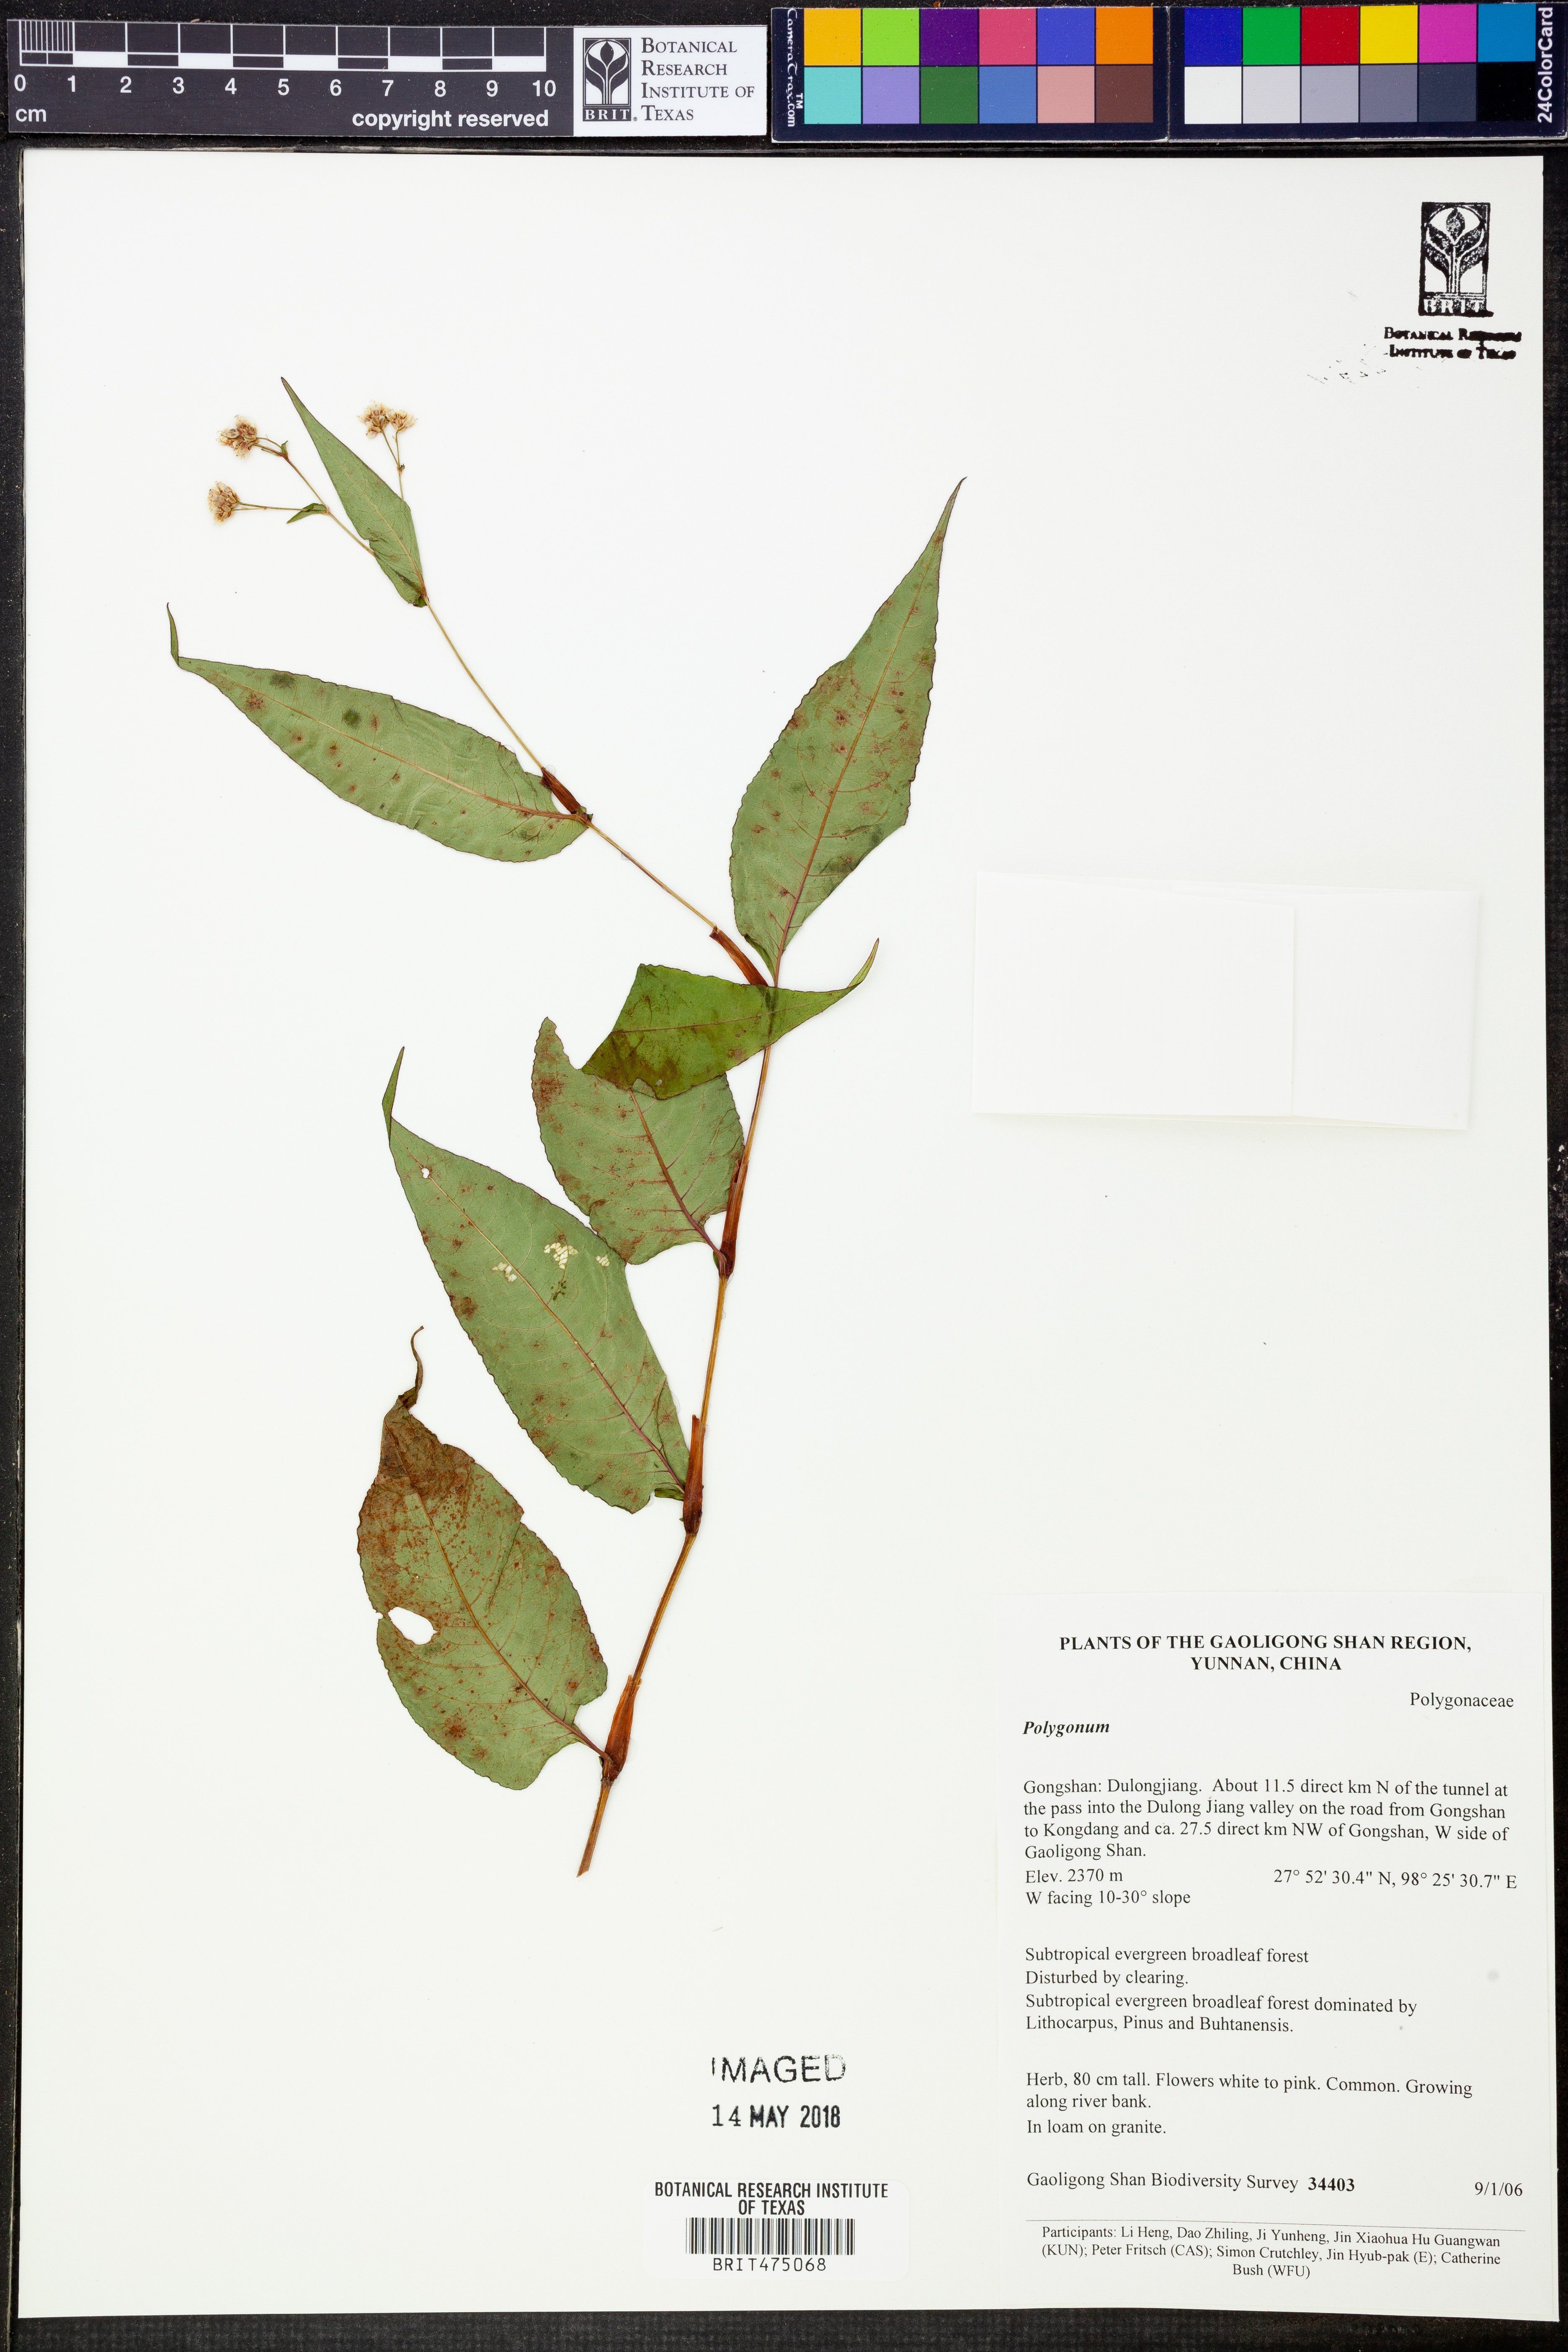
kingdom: Plantae
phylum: Tracheophyta
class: Magnoliopsida
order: Caryophyllales
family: Polygonaceae
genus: Polygonum
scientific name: Polygonum
